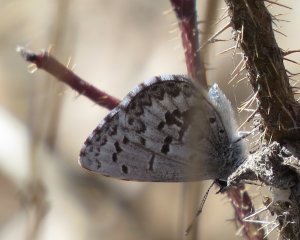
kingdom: Animalia
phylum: Arthropoda
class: Insecta
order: Lepidoptera
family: Lycaenidae
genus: Celastrina
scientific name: Celastrina lucia
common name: Northern Spring Azure
